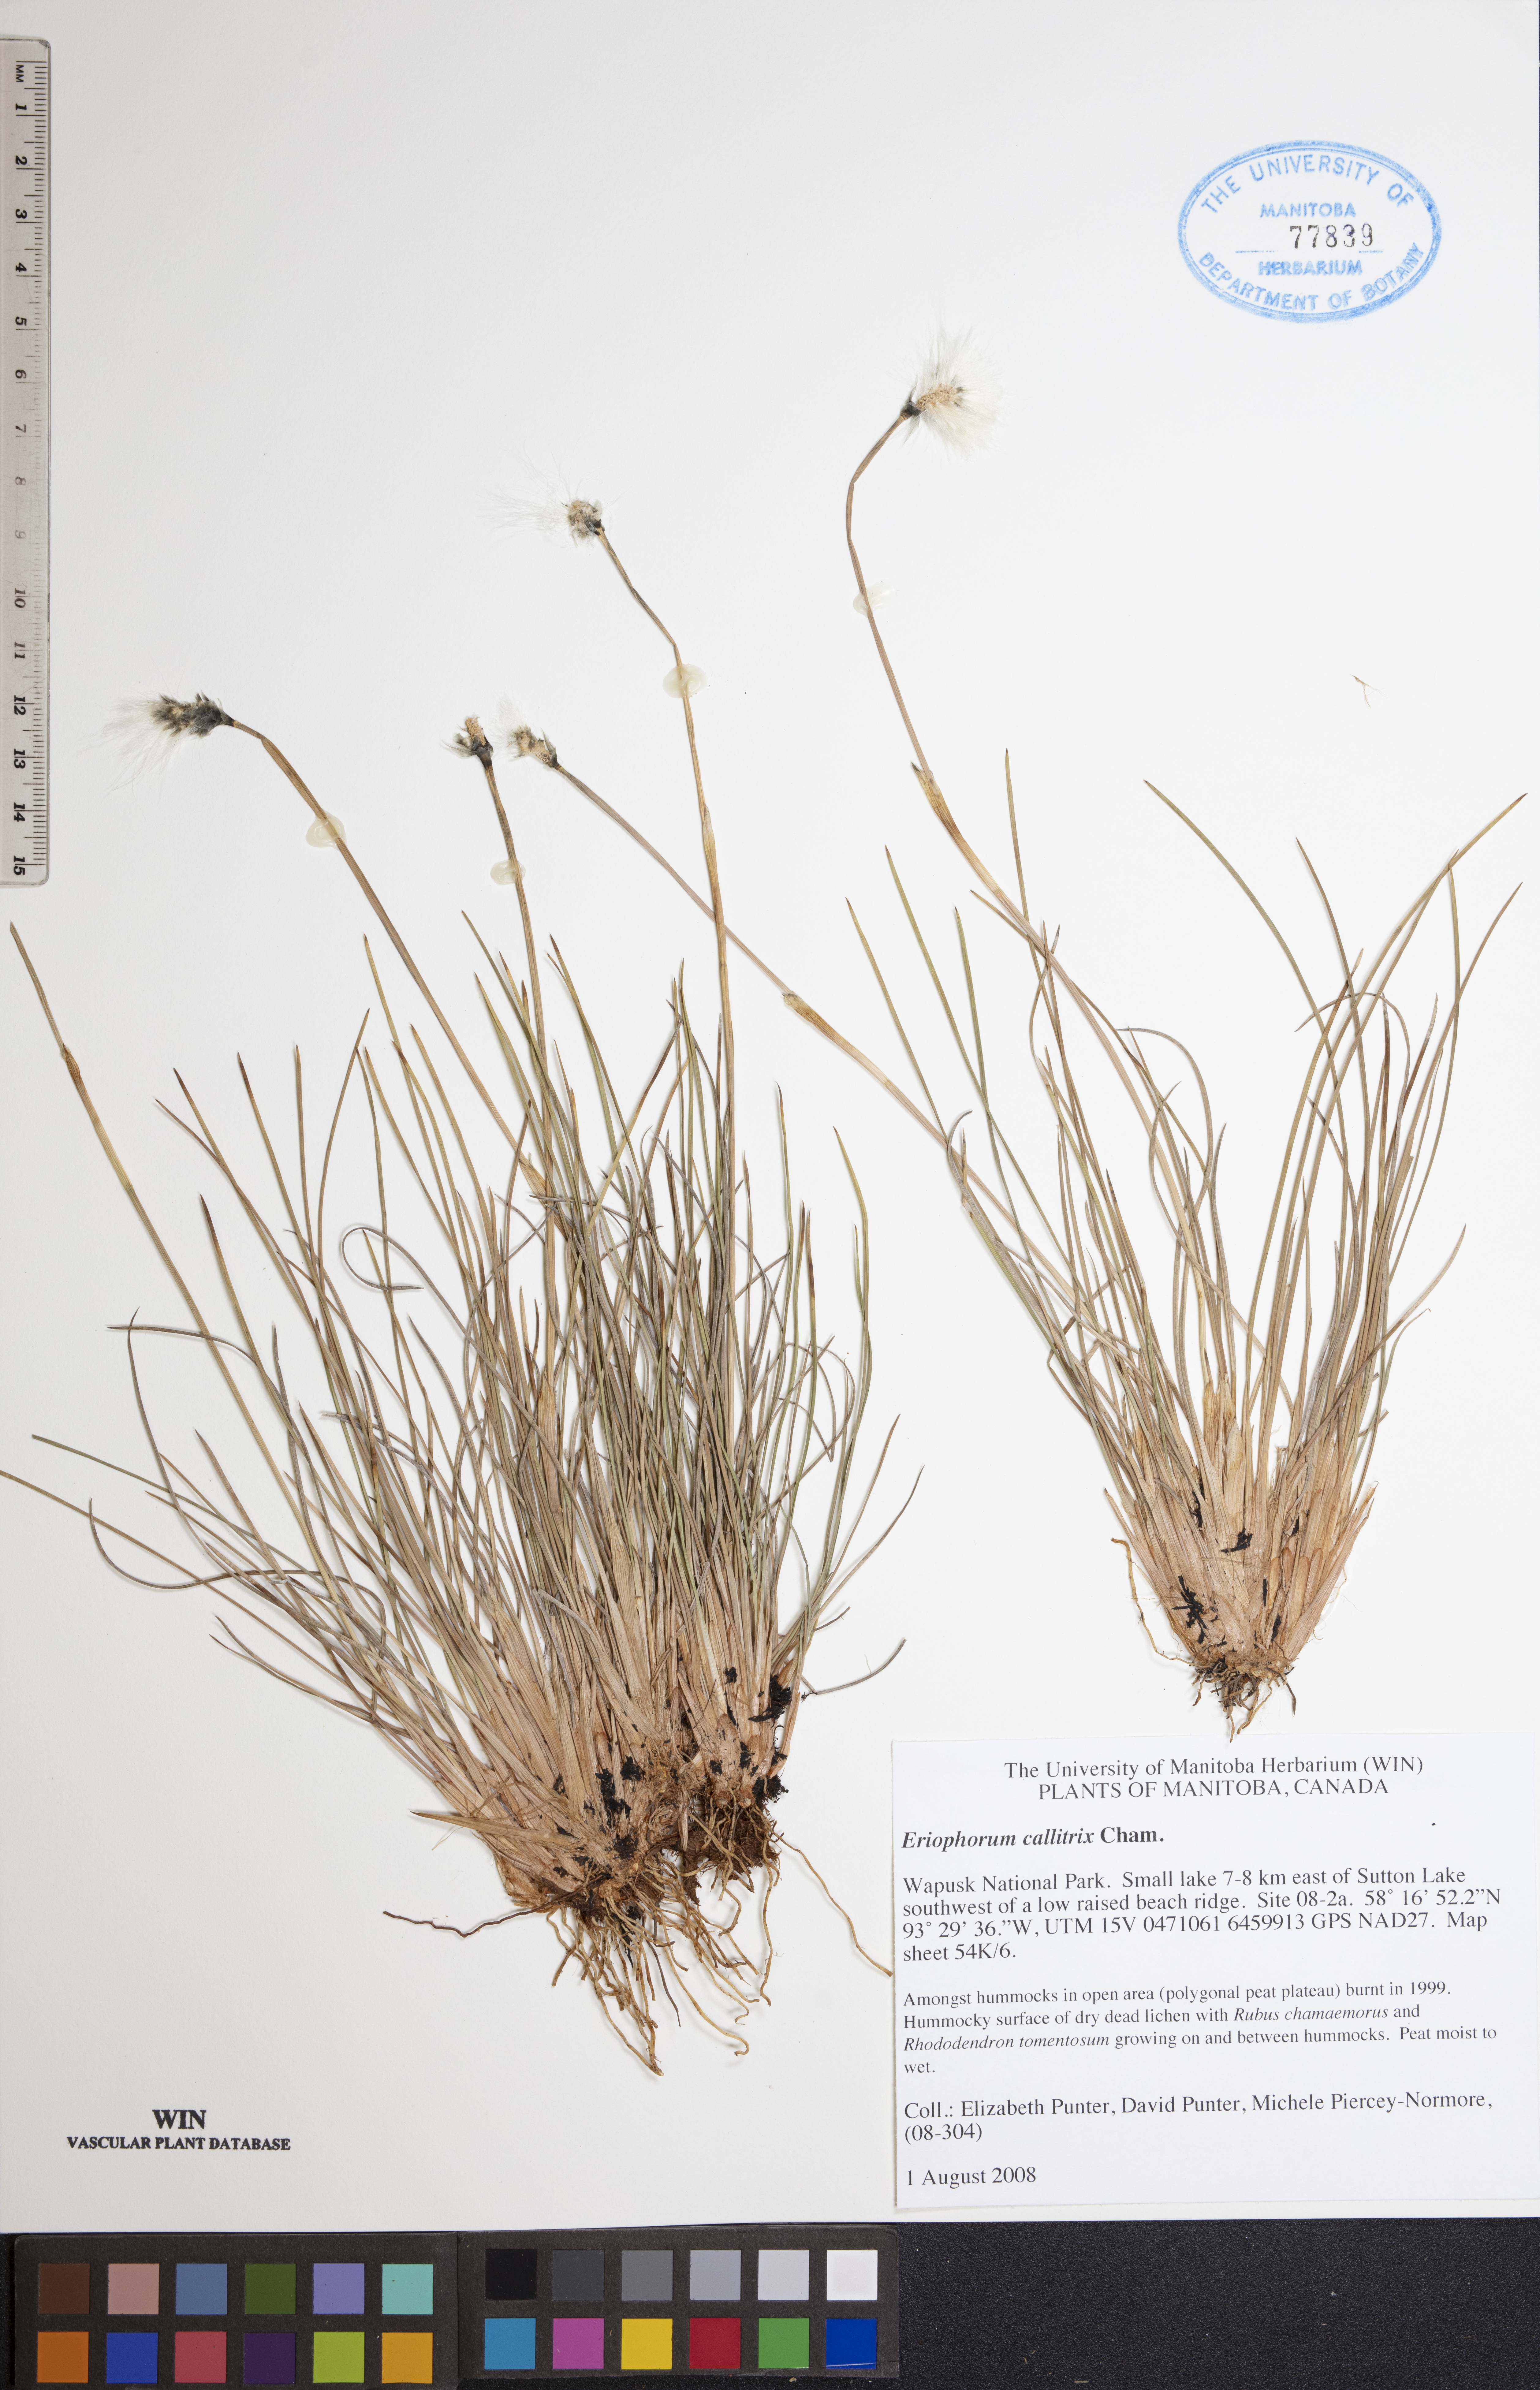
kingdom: Plantae
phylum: Tracheophyta
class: Liliopsida
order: Poales
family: Cyperaceae
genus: Eriophorum
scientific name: Eriophorum callitrix
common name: Arctic cottongrass
